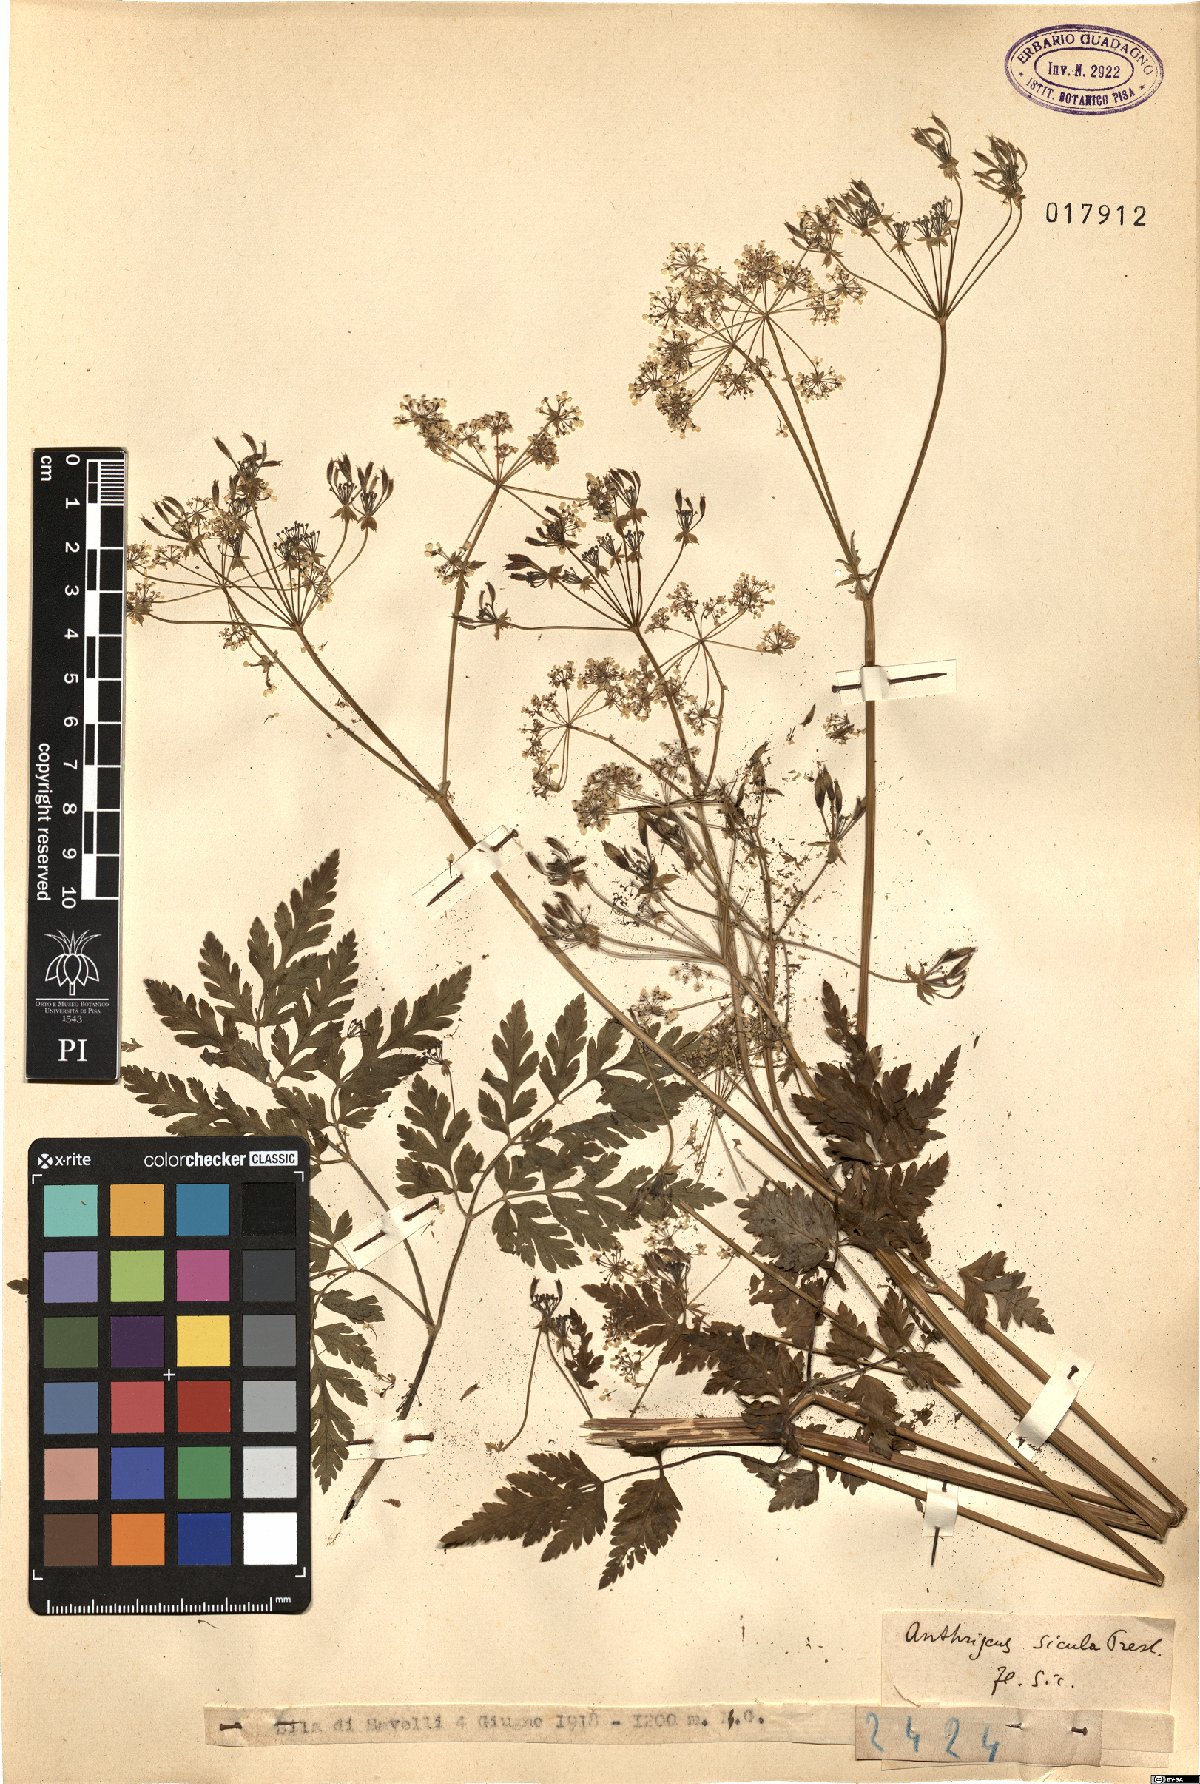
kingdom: Plantae
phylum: Tracheophyta
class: Magnoliopsida
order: Apiales
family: Apiaceae
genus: Anthriscus
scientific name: Anthriscus sicula
